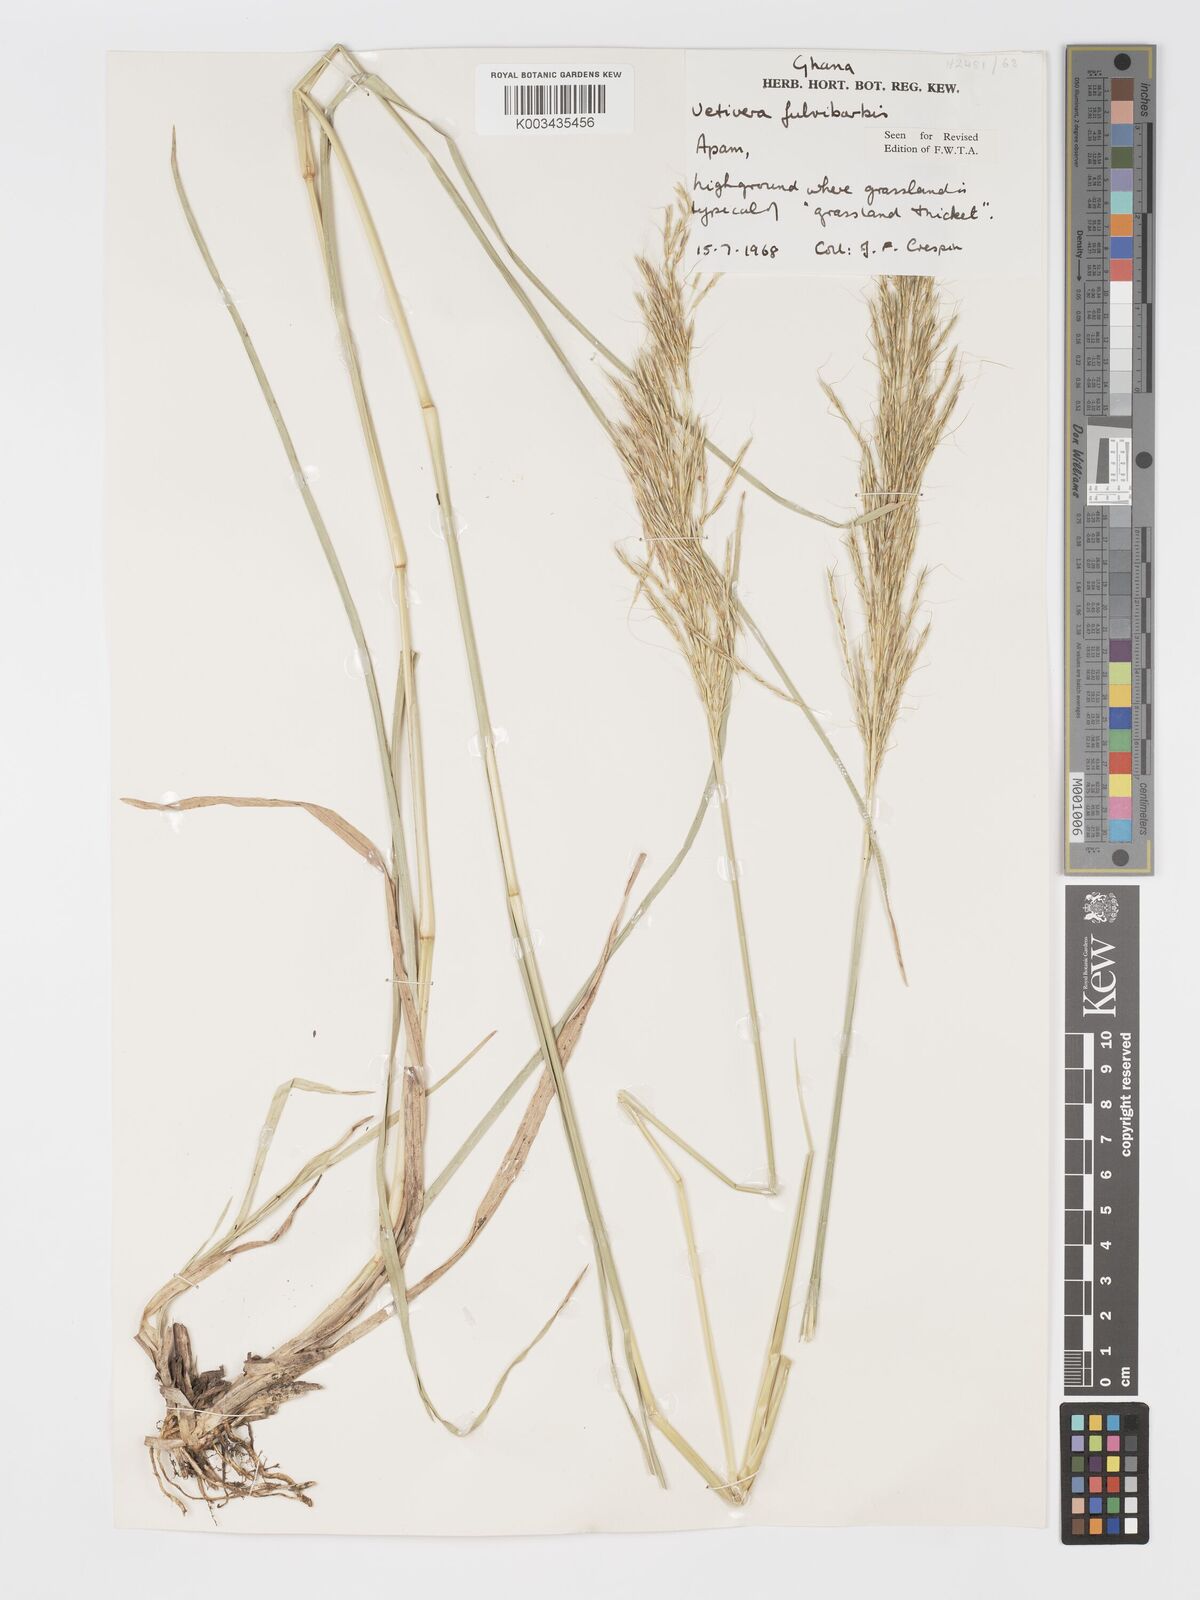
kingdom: Plantae
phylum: Tracheophyta
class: Liliopsida
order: Poales
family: Poaceae
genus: Chrysopogon
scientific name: Chrysopogon fulvibarbis
